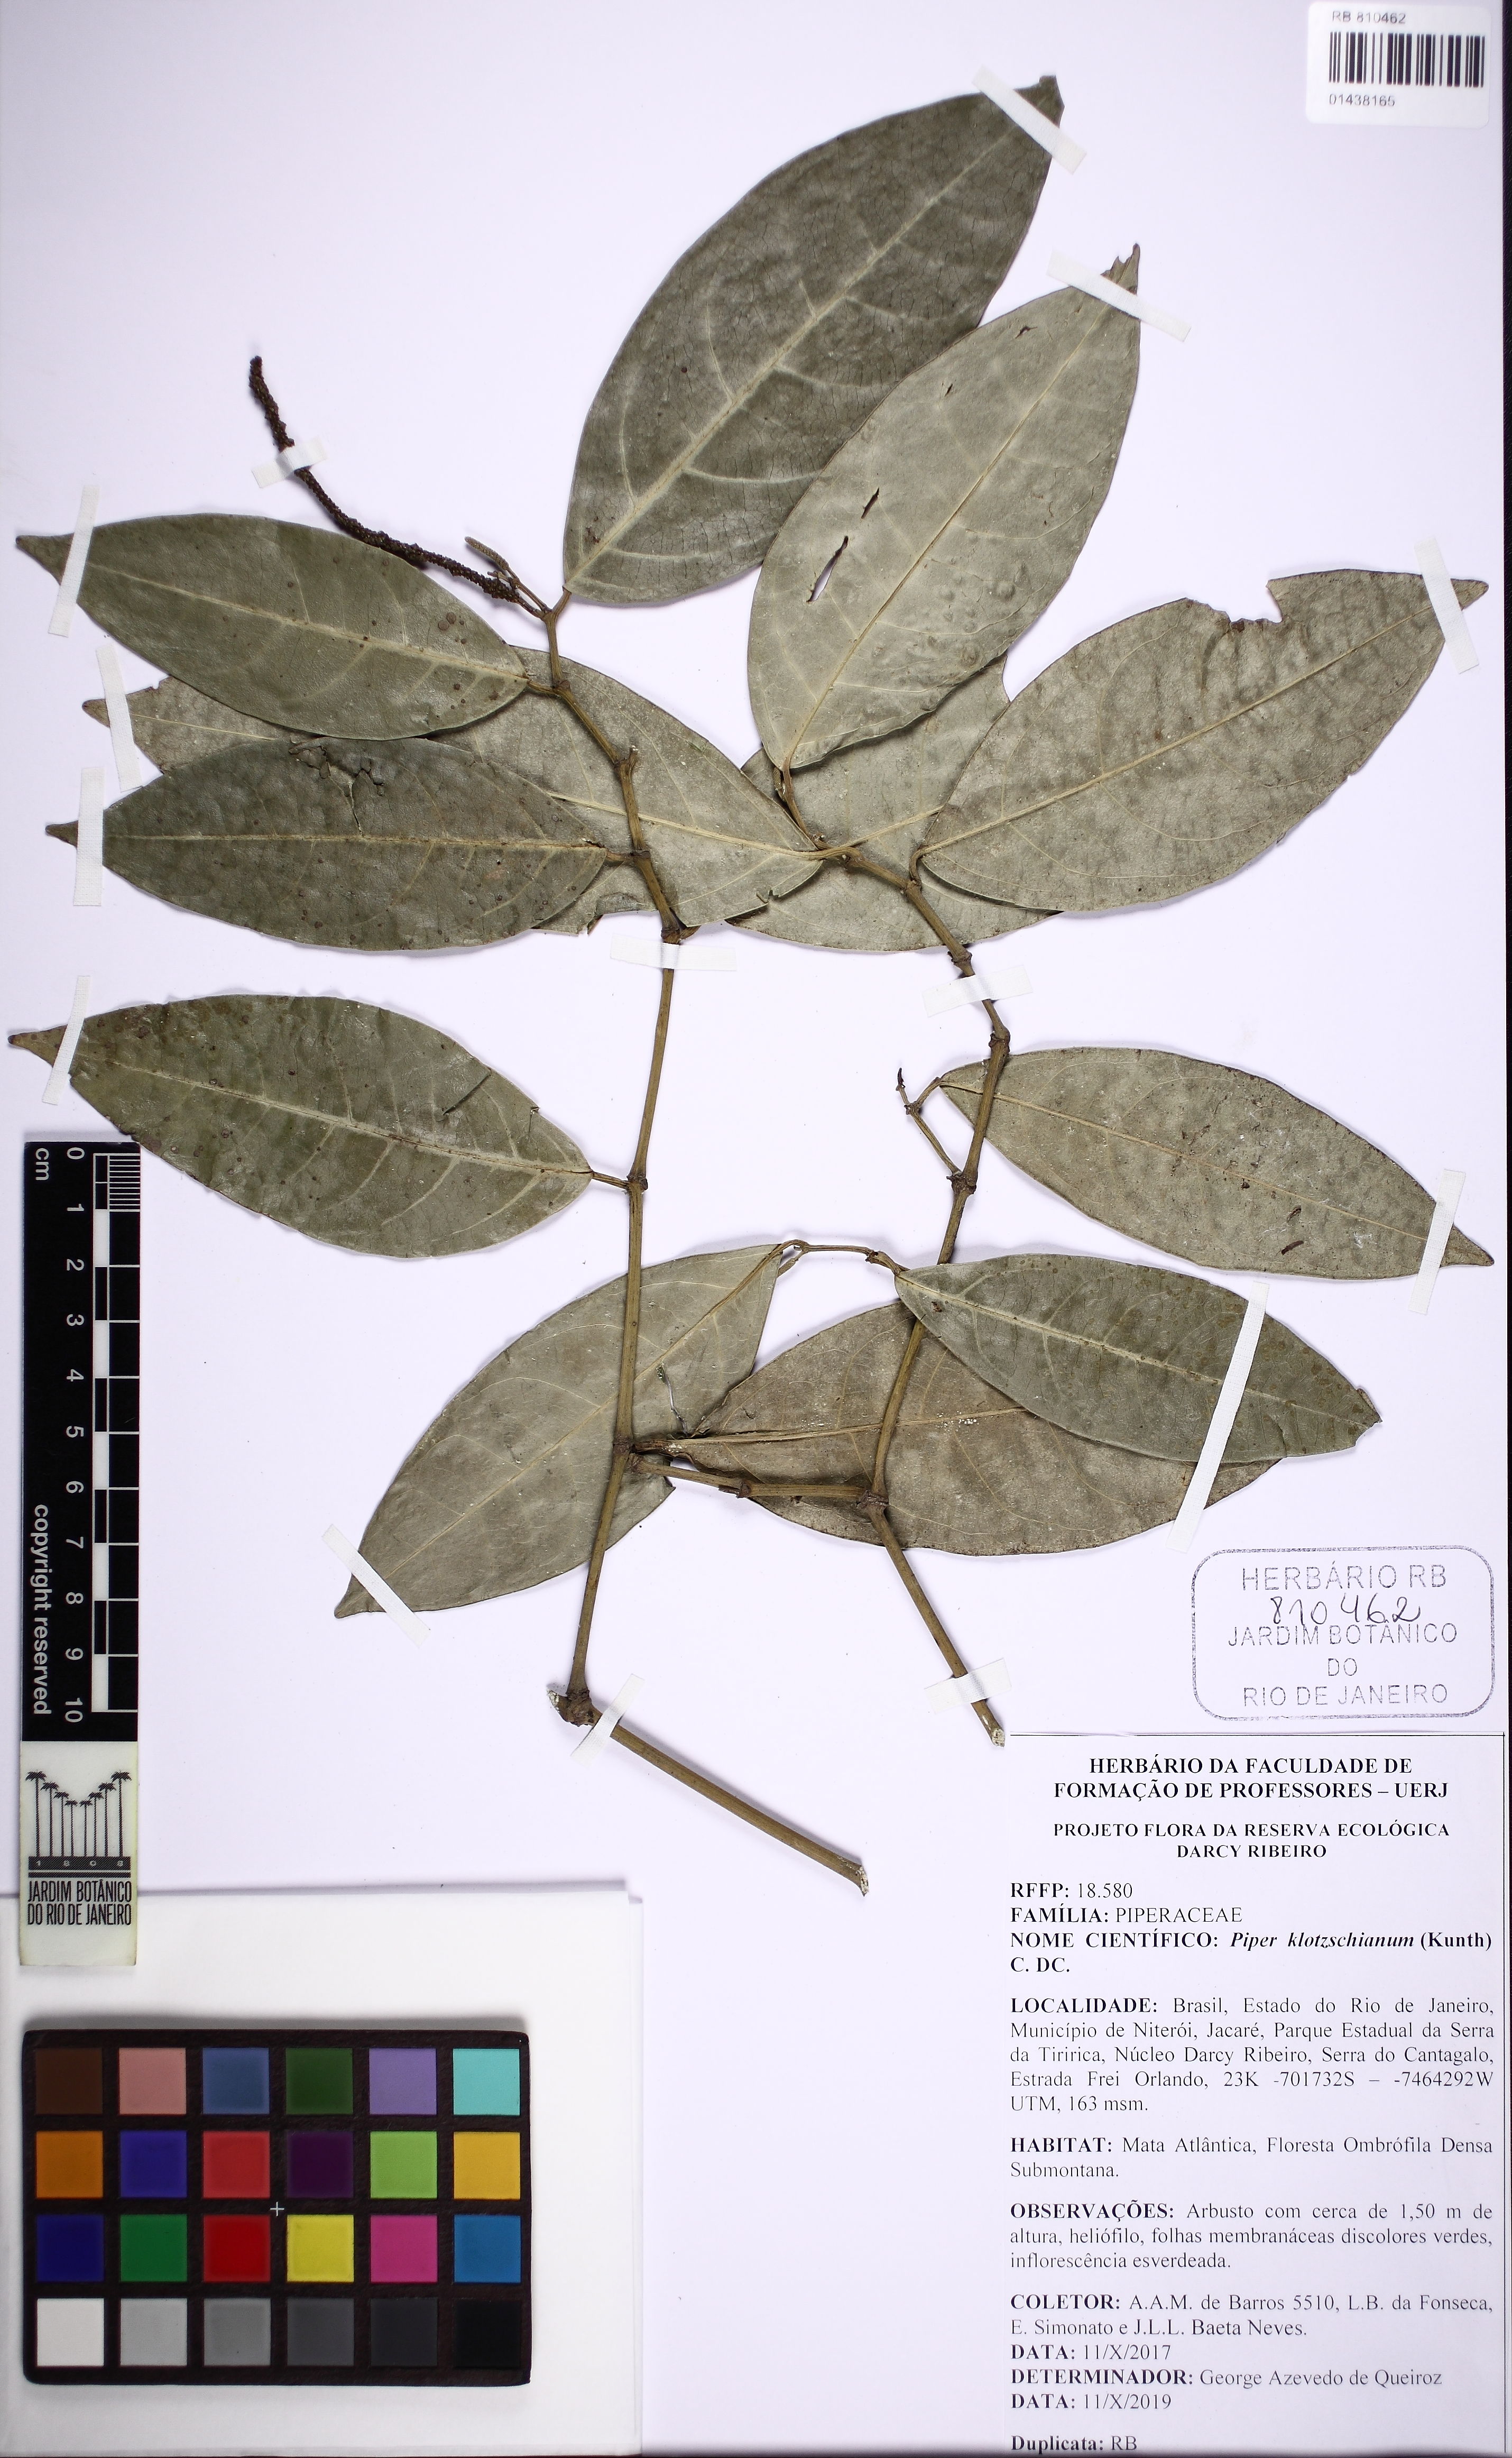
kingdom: Plantae
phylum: Tracheophyta
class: Magnoliopsida
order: Piperales
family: Piperaceae
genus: Piper
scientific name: Piper klotzschianum
